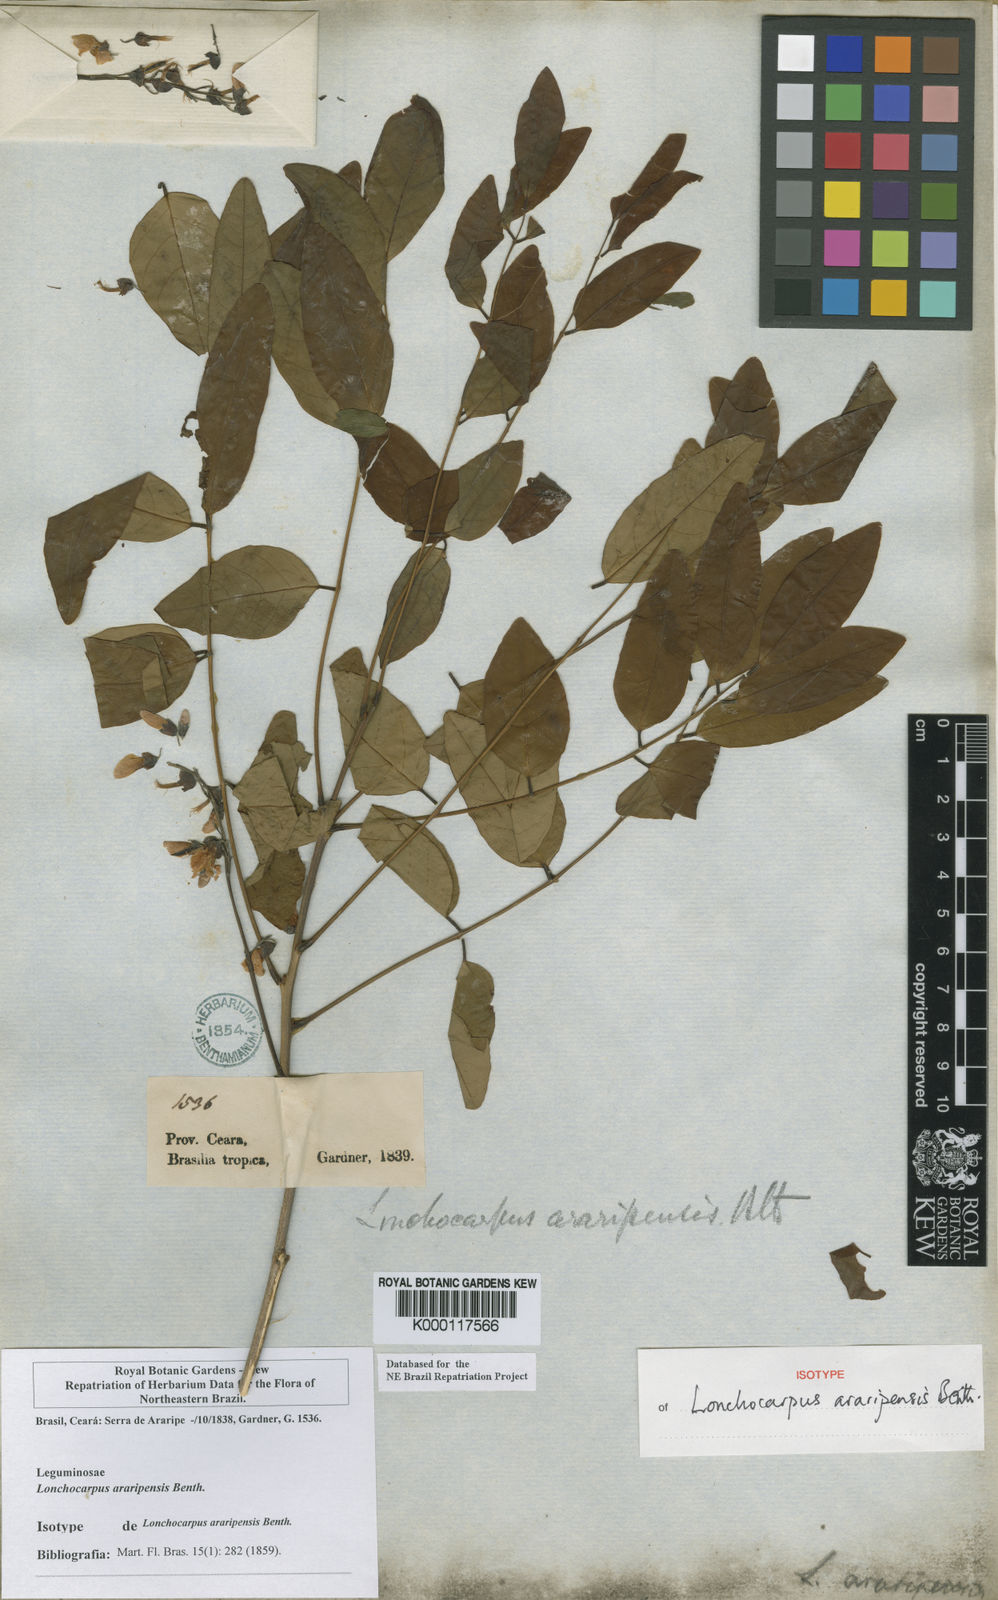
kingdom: Plantae
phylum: Tracheophyta
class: Magnoliopsida
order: Fabales
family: Fabaceae
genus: Dahlstedtia
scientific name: Dahlstedtia araripensis
